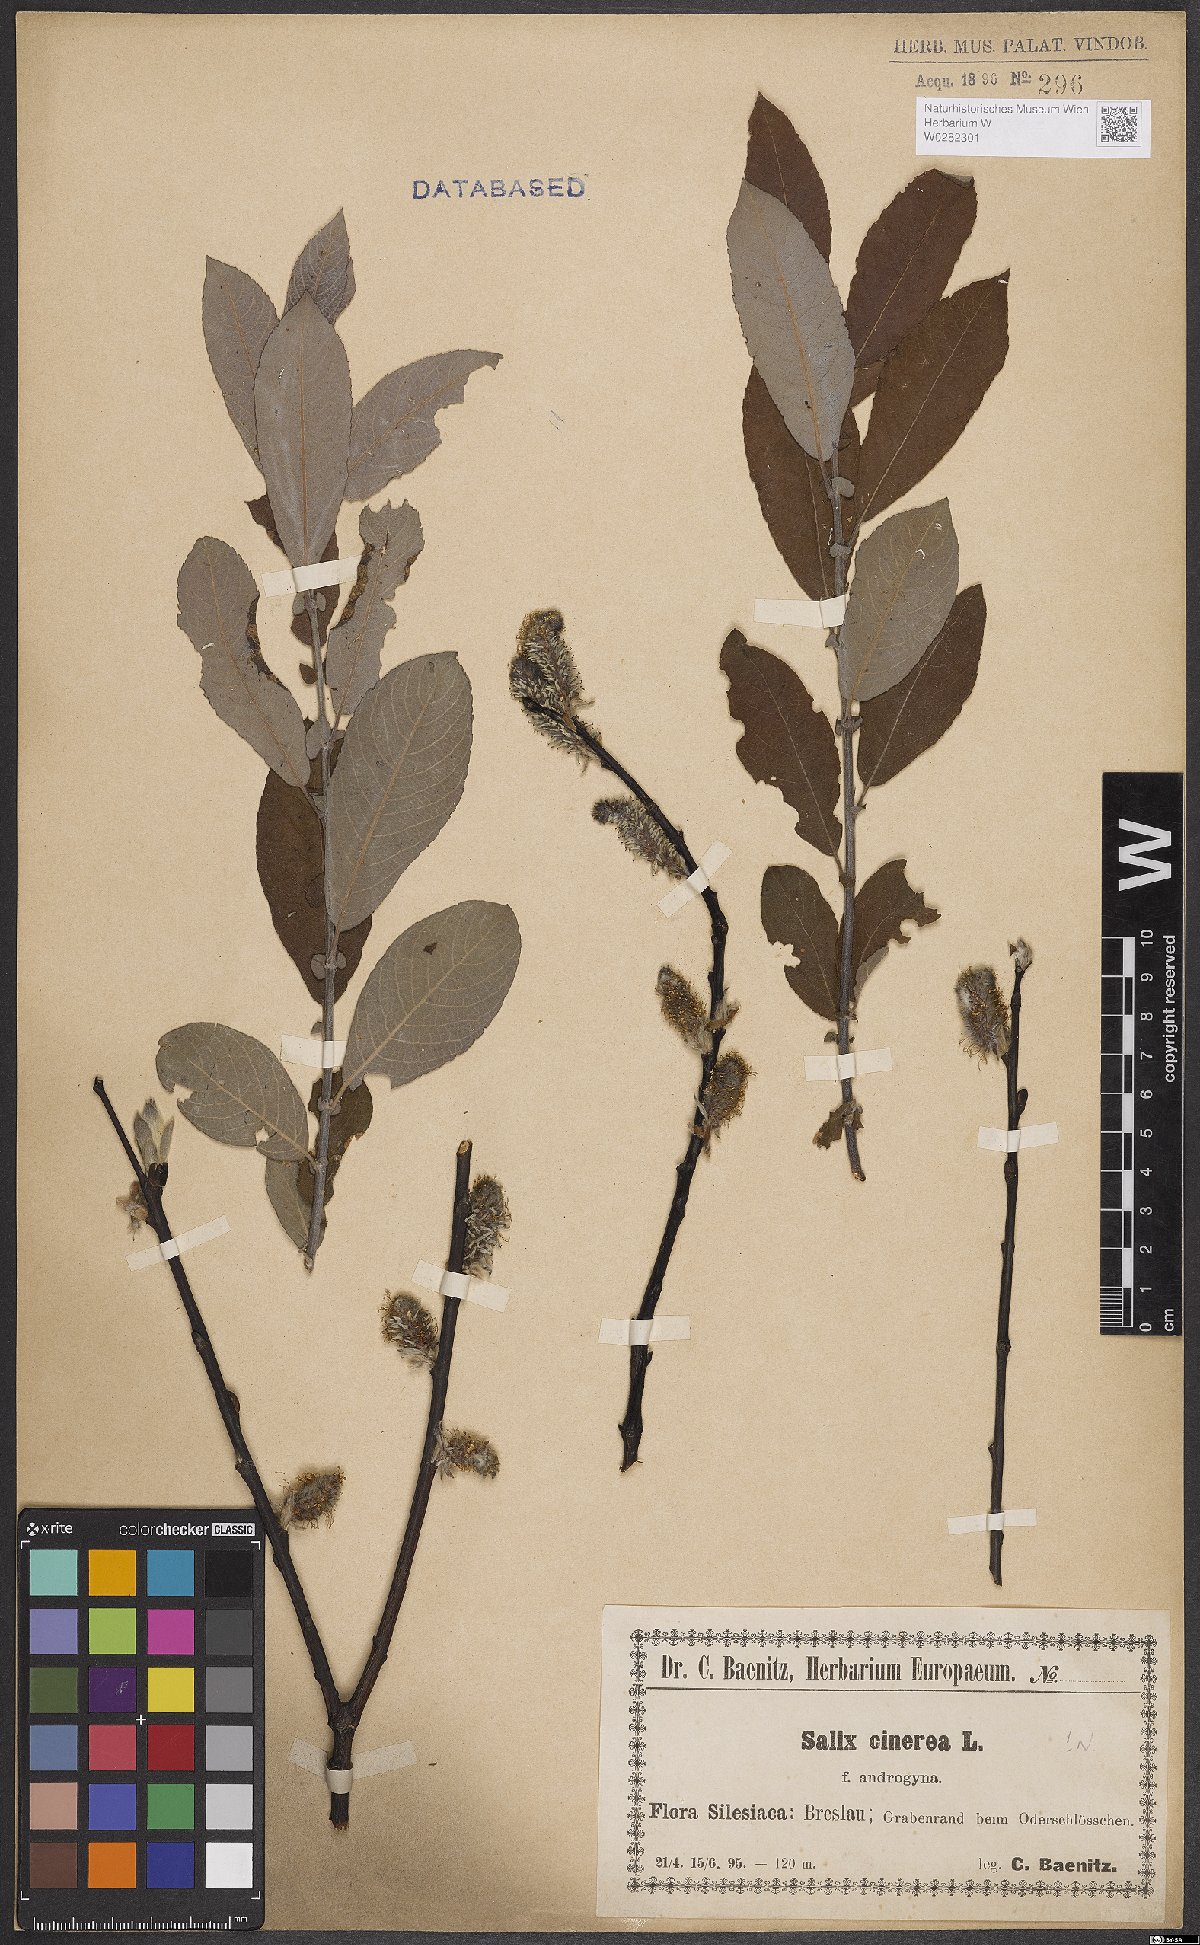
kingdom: Plantae
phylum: Tracheophyta
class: Magnoliopsida
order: Malpighiales
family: Salicaceae
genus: Salix
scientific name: Salix cinerea
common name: Common sallow
